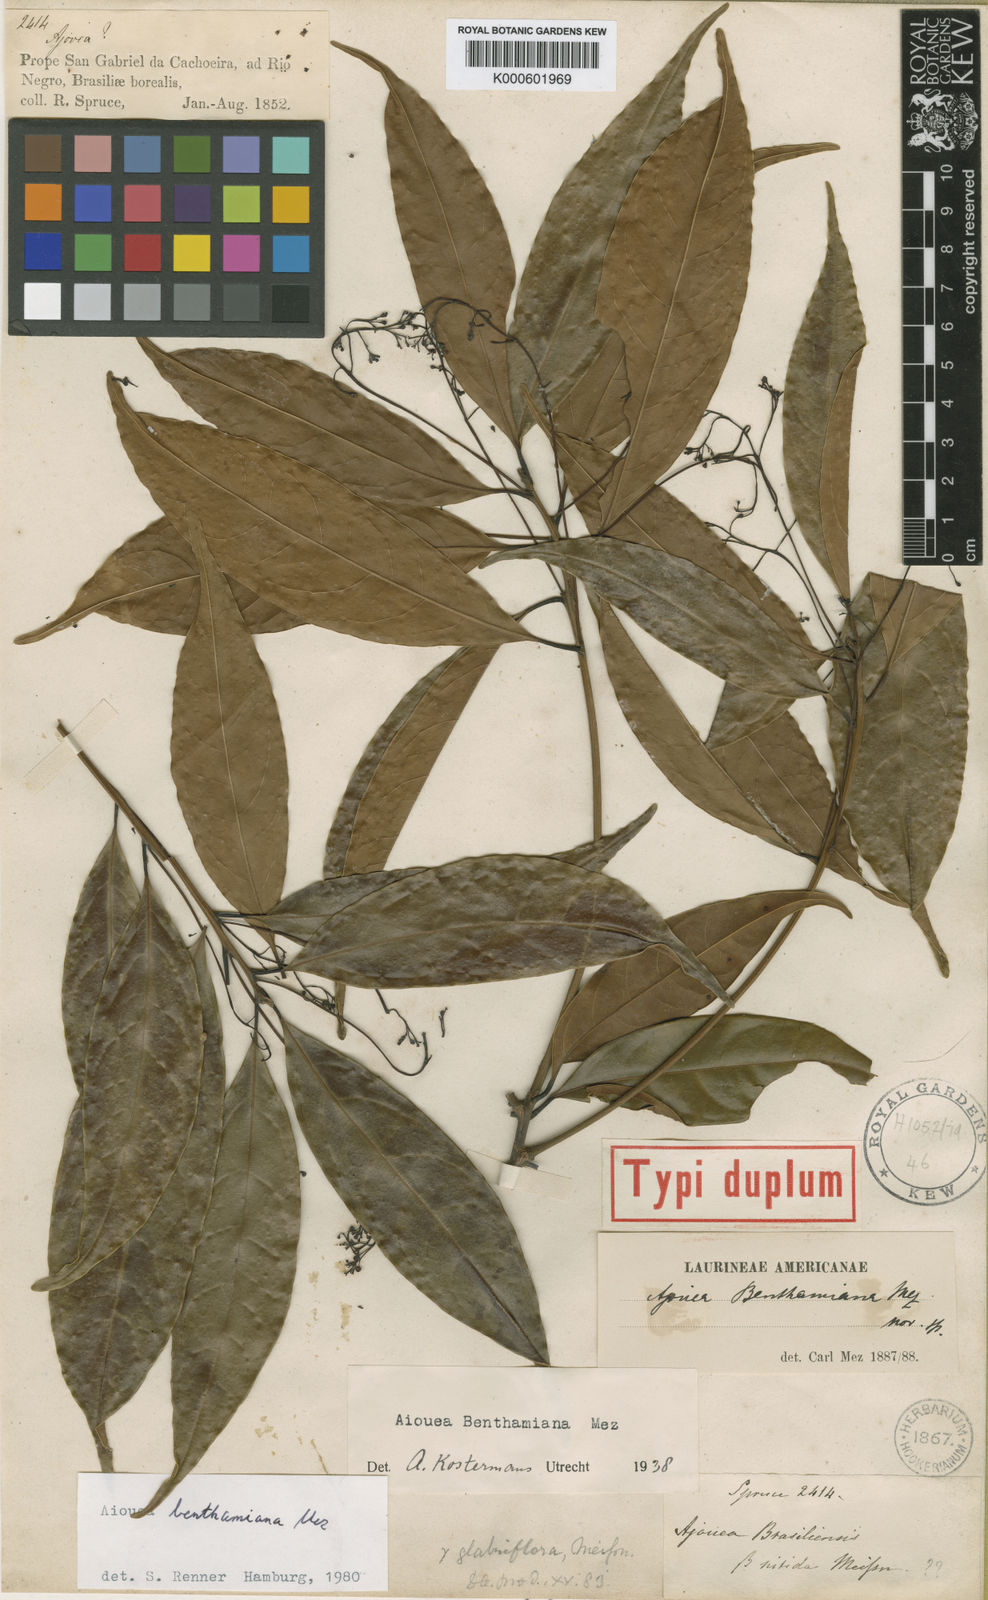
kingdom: Plantae
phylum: Tracheophyta
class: Magnoliopsida
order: Laurales
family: Lauraceae
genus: Aiouea
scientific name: Aiouea benthamiana
